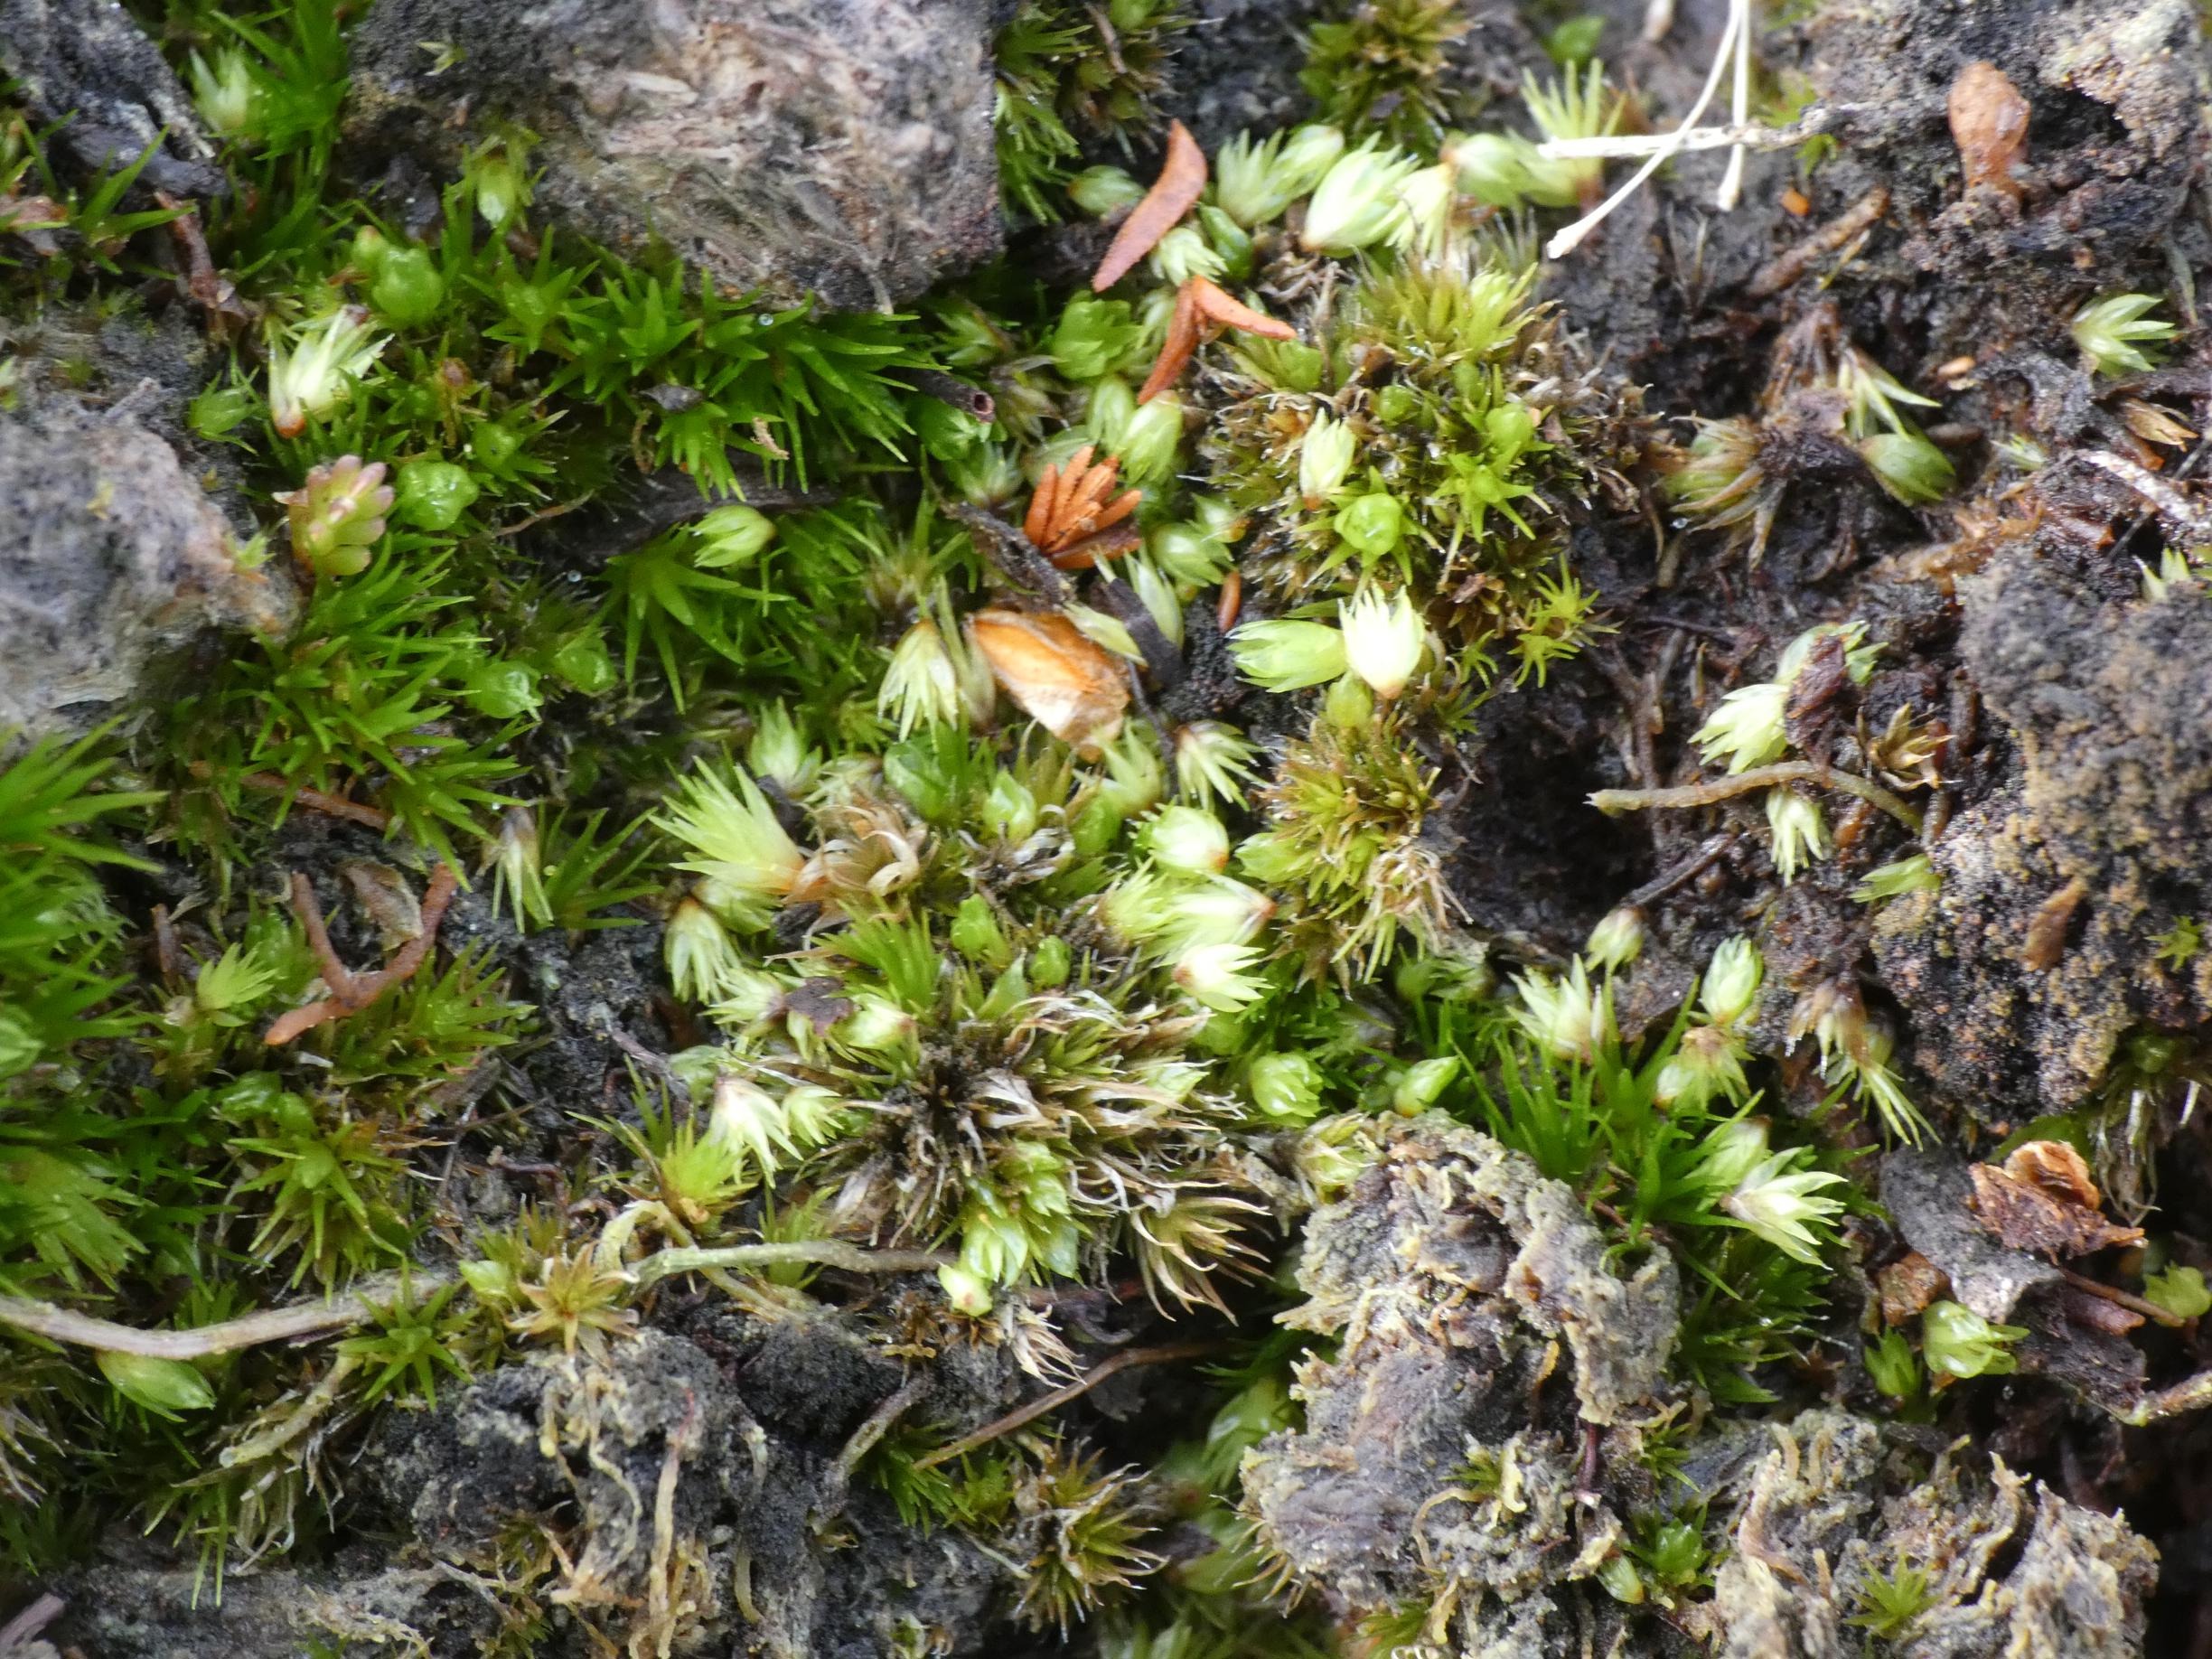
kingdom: Plantae
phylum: Bryophyta
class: Bryopsida
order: Dicranales
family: Leucobryaceae
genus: Campylopus
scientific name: Campylopus introflexus
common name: Stjerne-bredribbe
